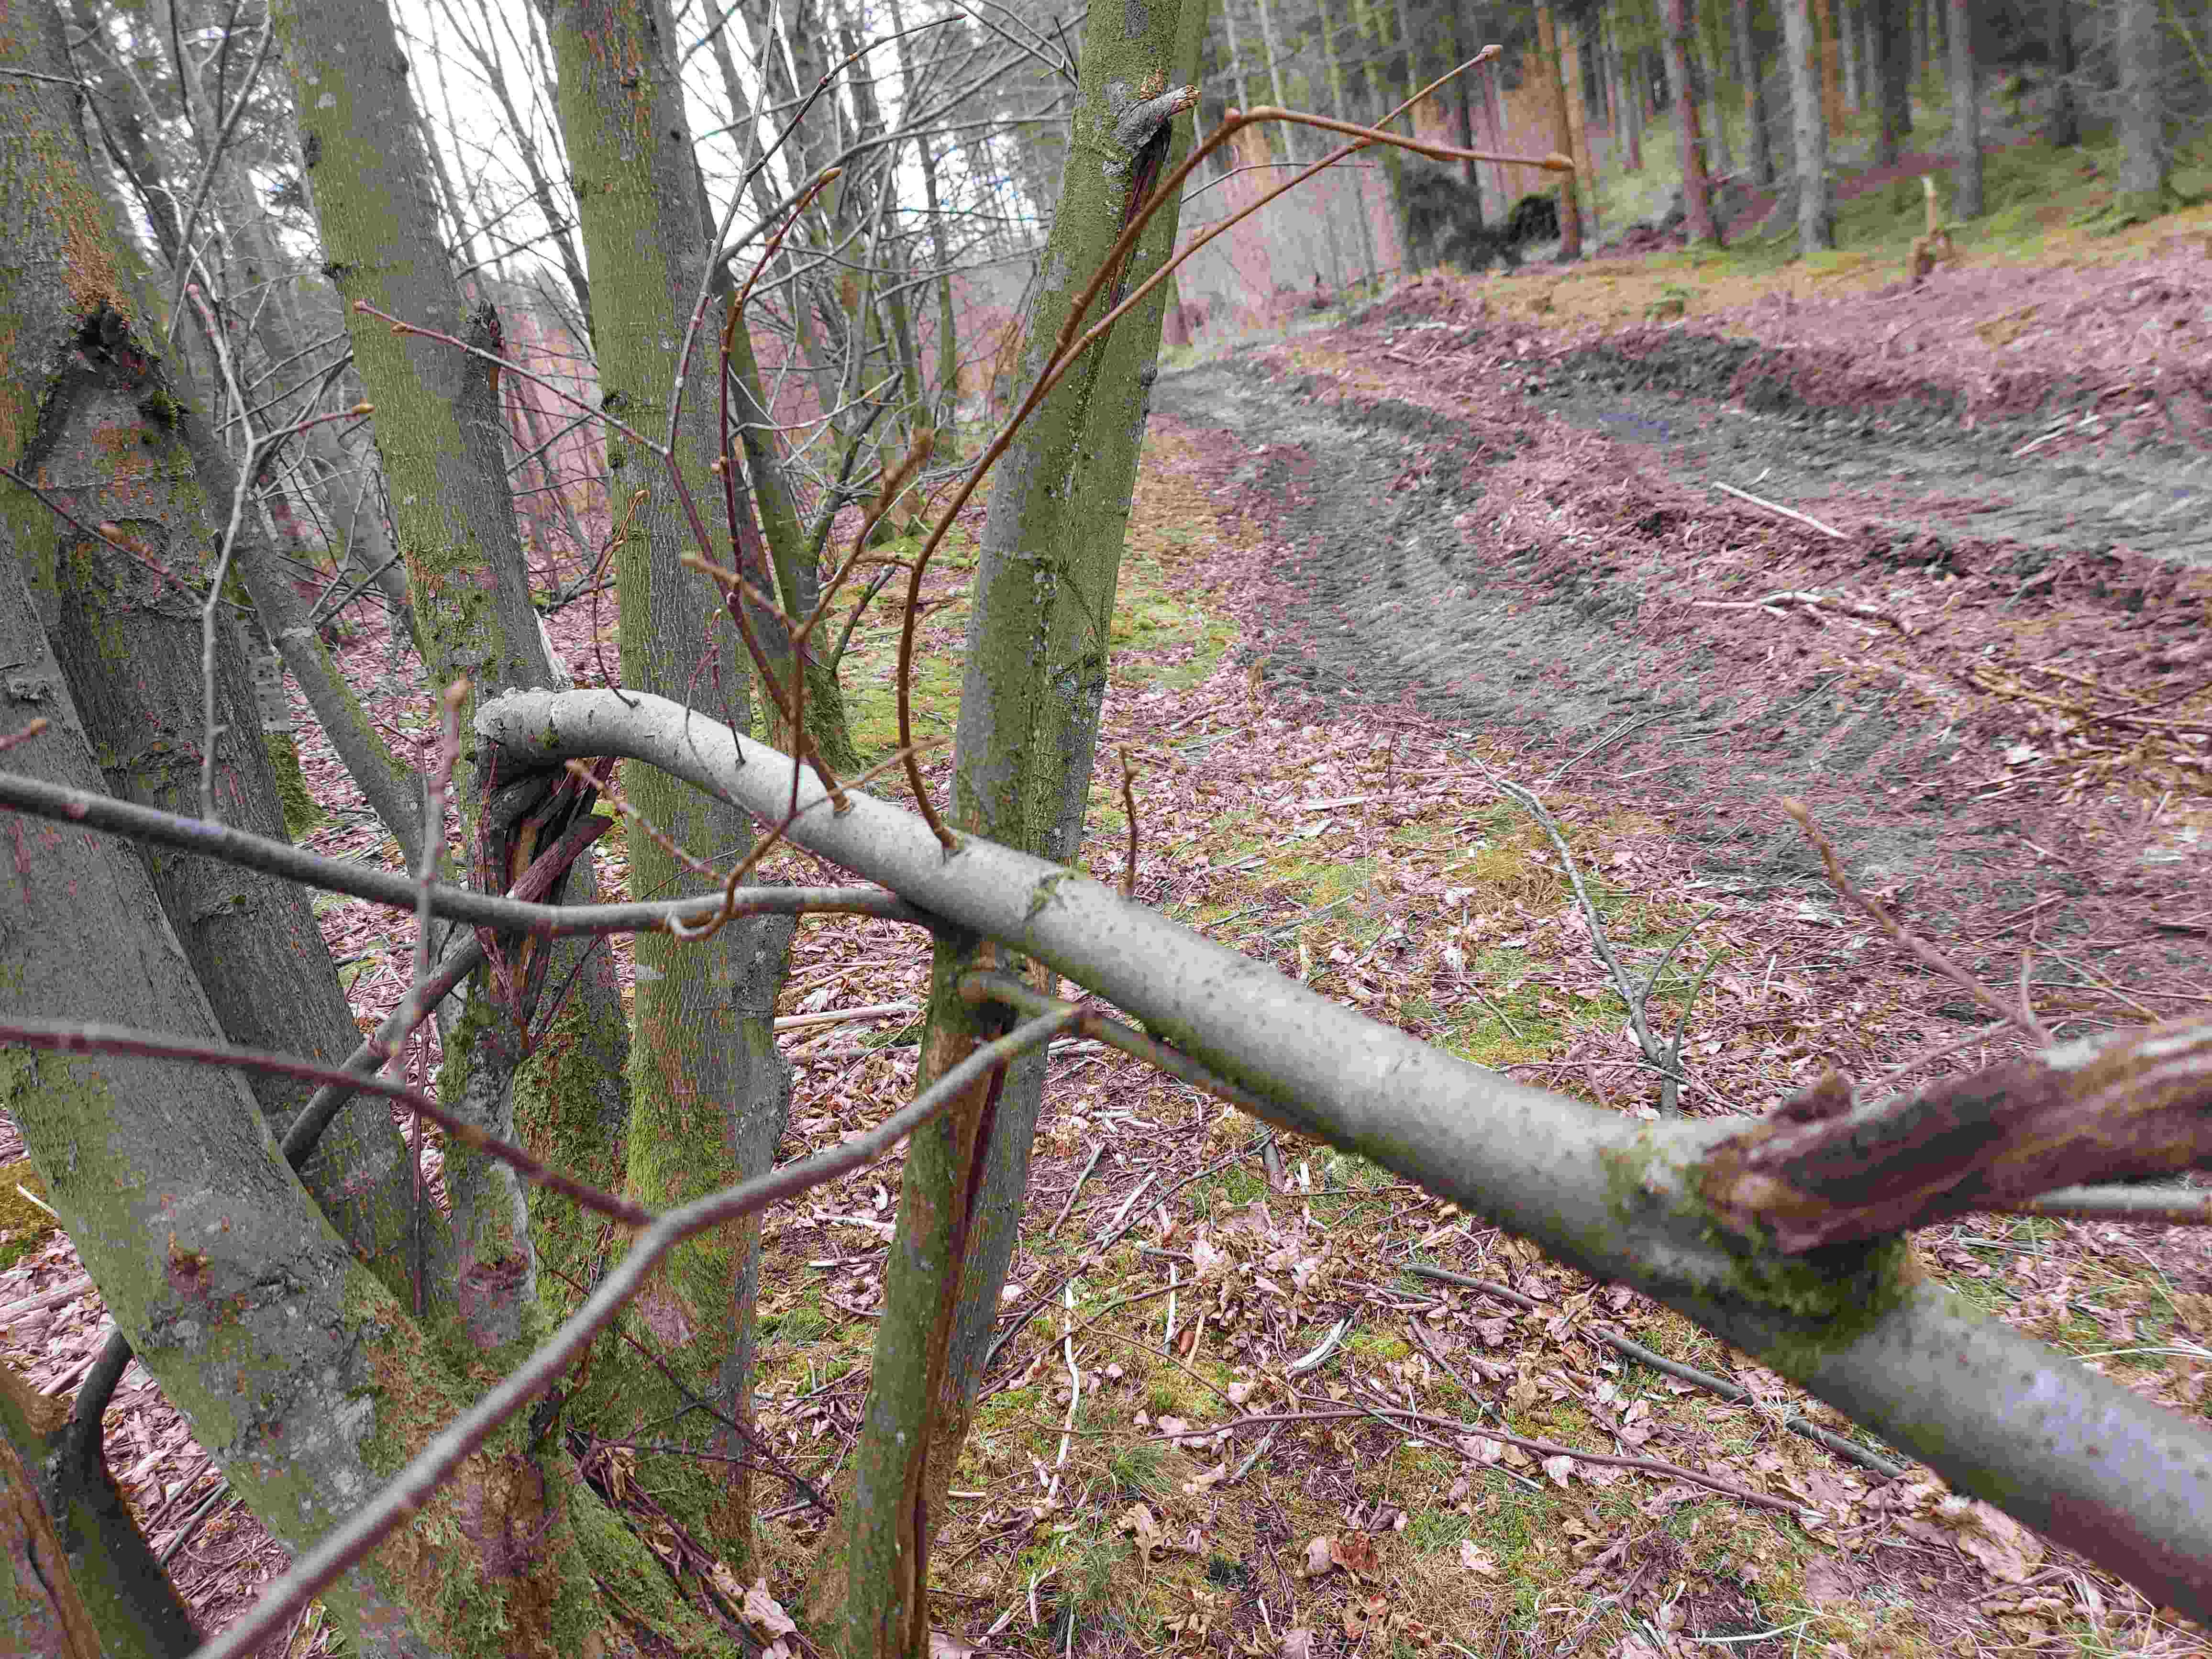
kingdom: Fungi
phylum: Ascomycota
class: Eurotiomycetes
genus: Glyphium
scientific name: Glyphium elatum
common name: kuløkse
